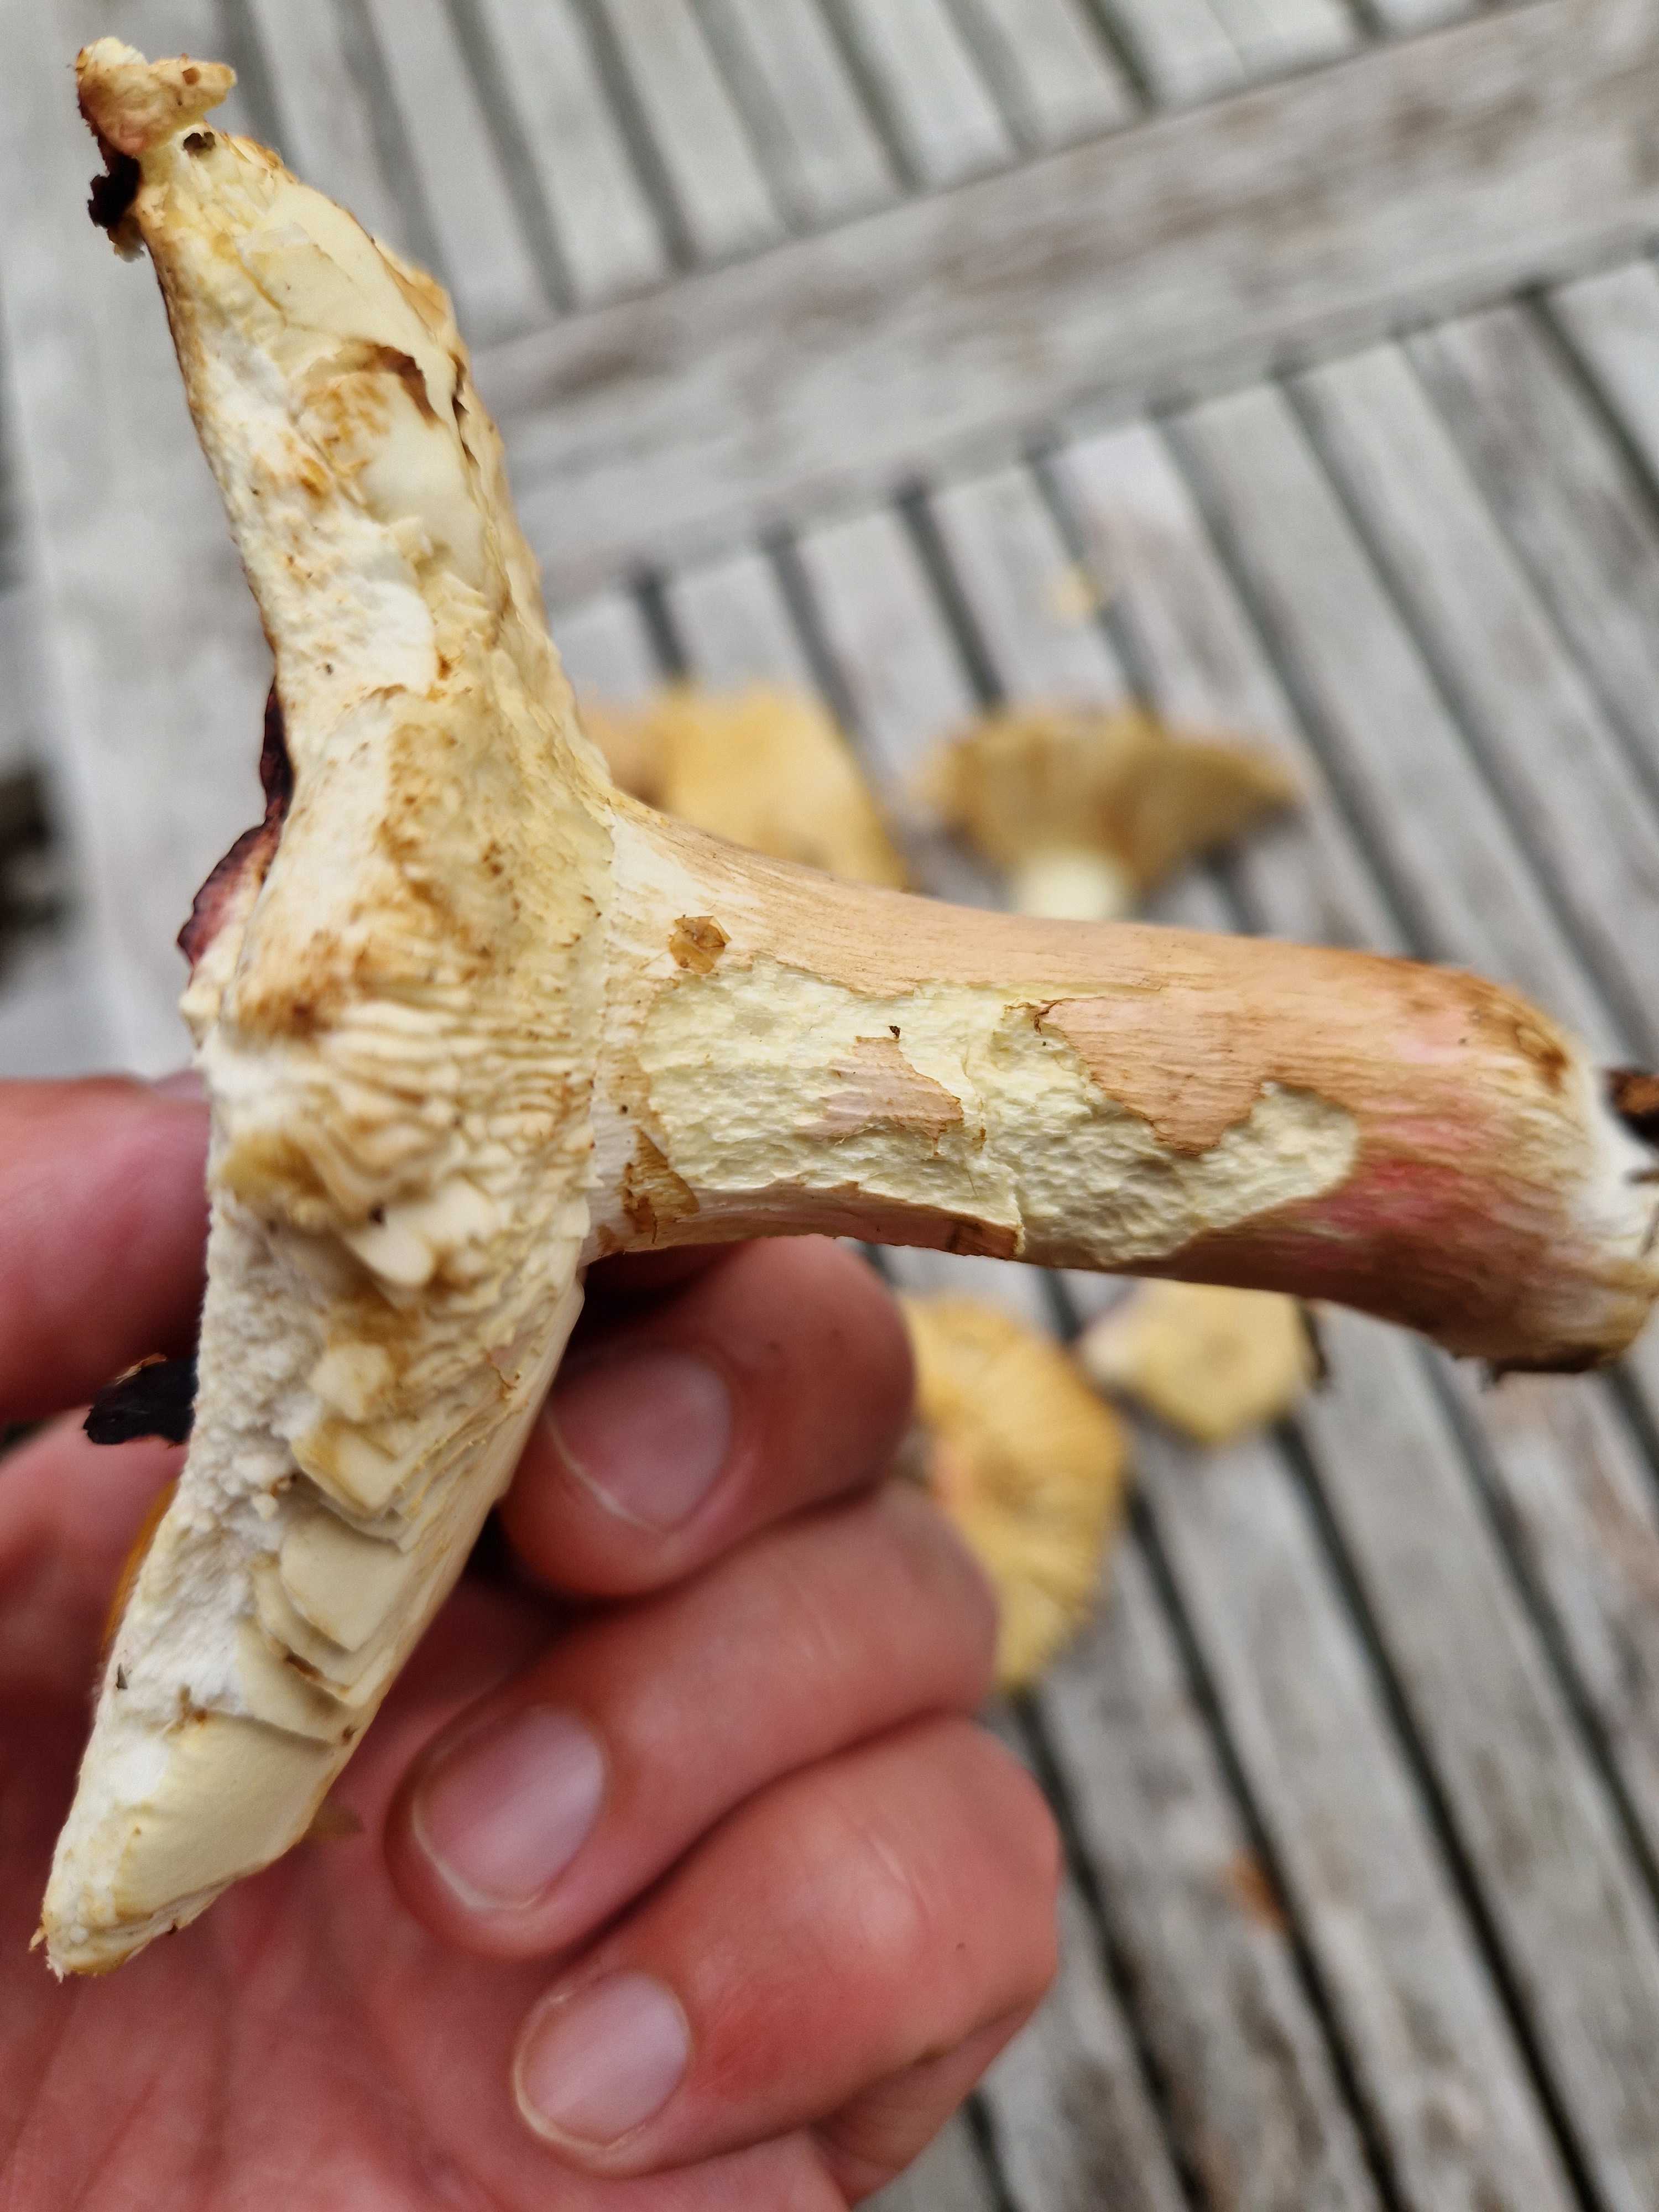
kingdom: Fungi
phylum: Basidiomycota
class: Agaricomycetes
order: Russulales
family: Russulaceae
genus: Russula
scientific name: Russula xerampelina
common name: hummer-skørhat
